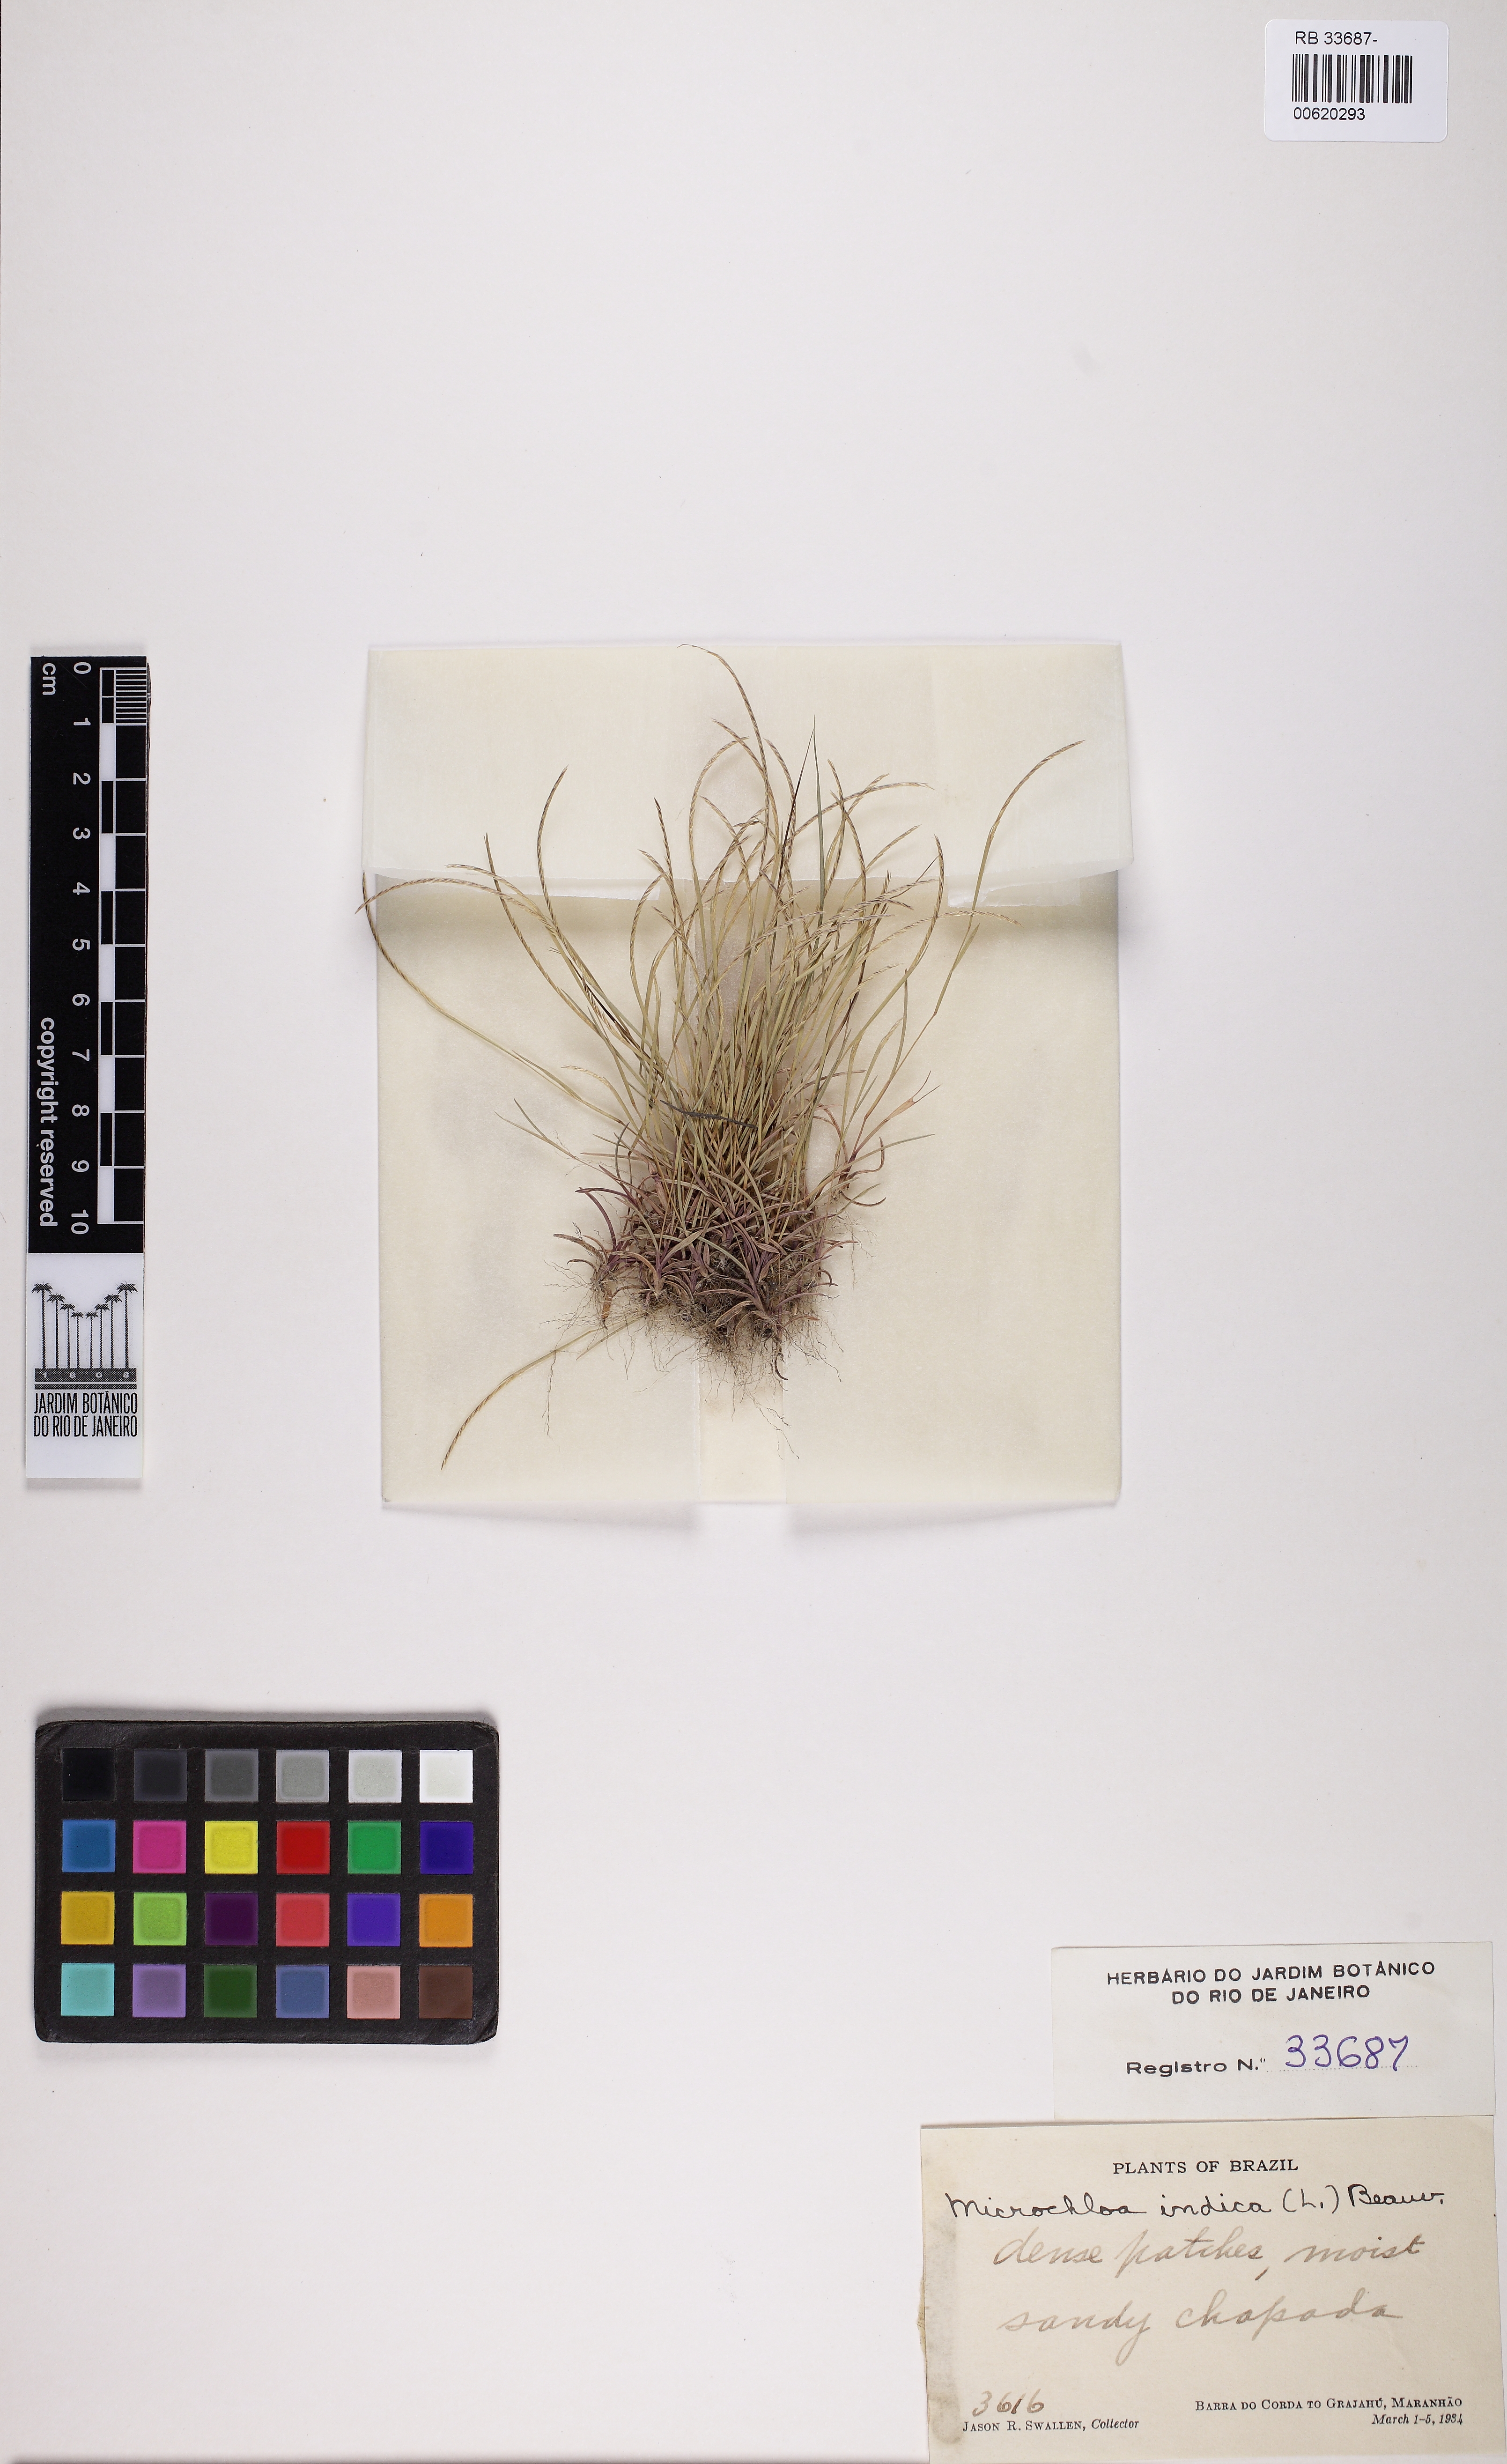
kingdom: Plantae
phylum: Tracheophyta
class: Liliopsida
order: Poales
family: Poaceae
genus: Microchloa
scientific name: Microchloa indica
